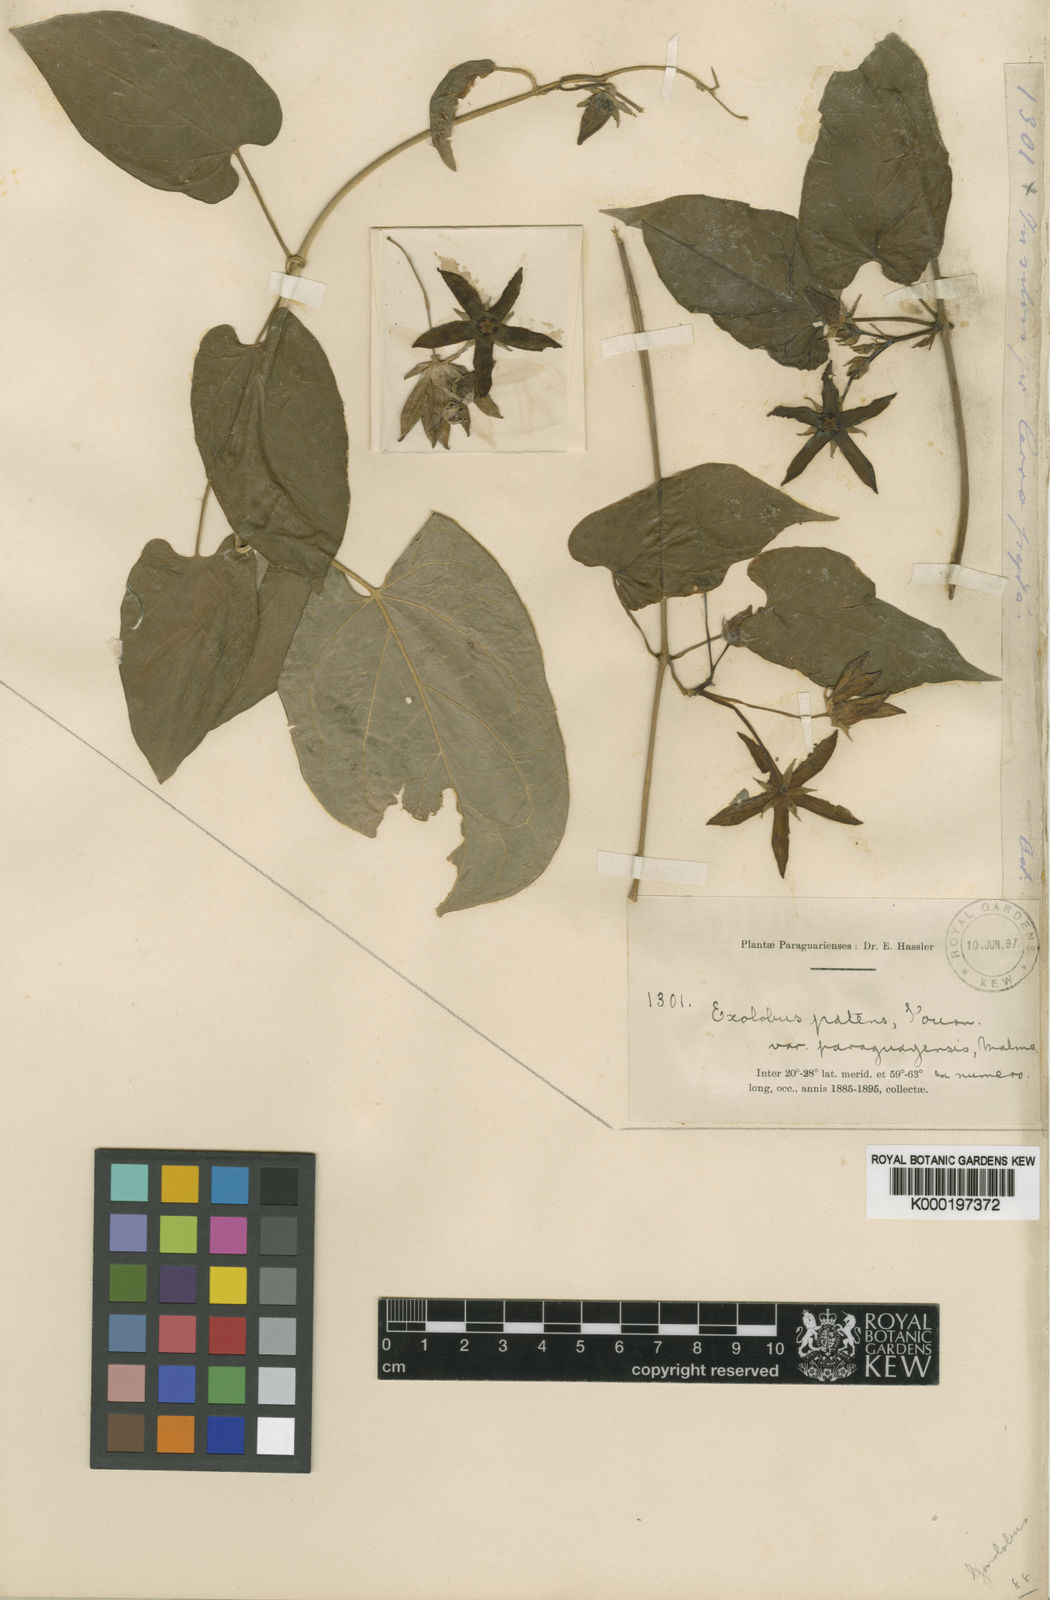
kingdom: Plantae
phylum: Tracheophyta
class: Magnoliopsida
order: Gentianales
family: Apocynaceae
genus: Gonolobus
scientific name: Gonolobus rostratus
